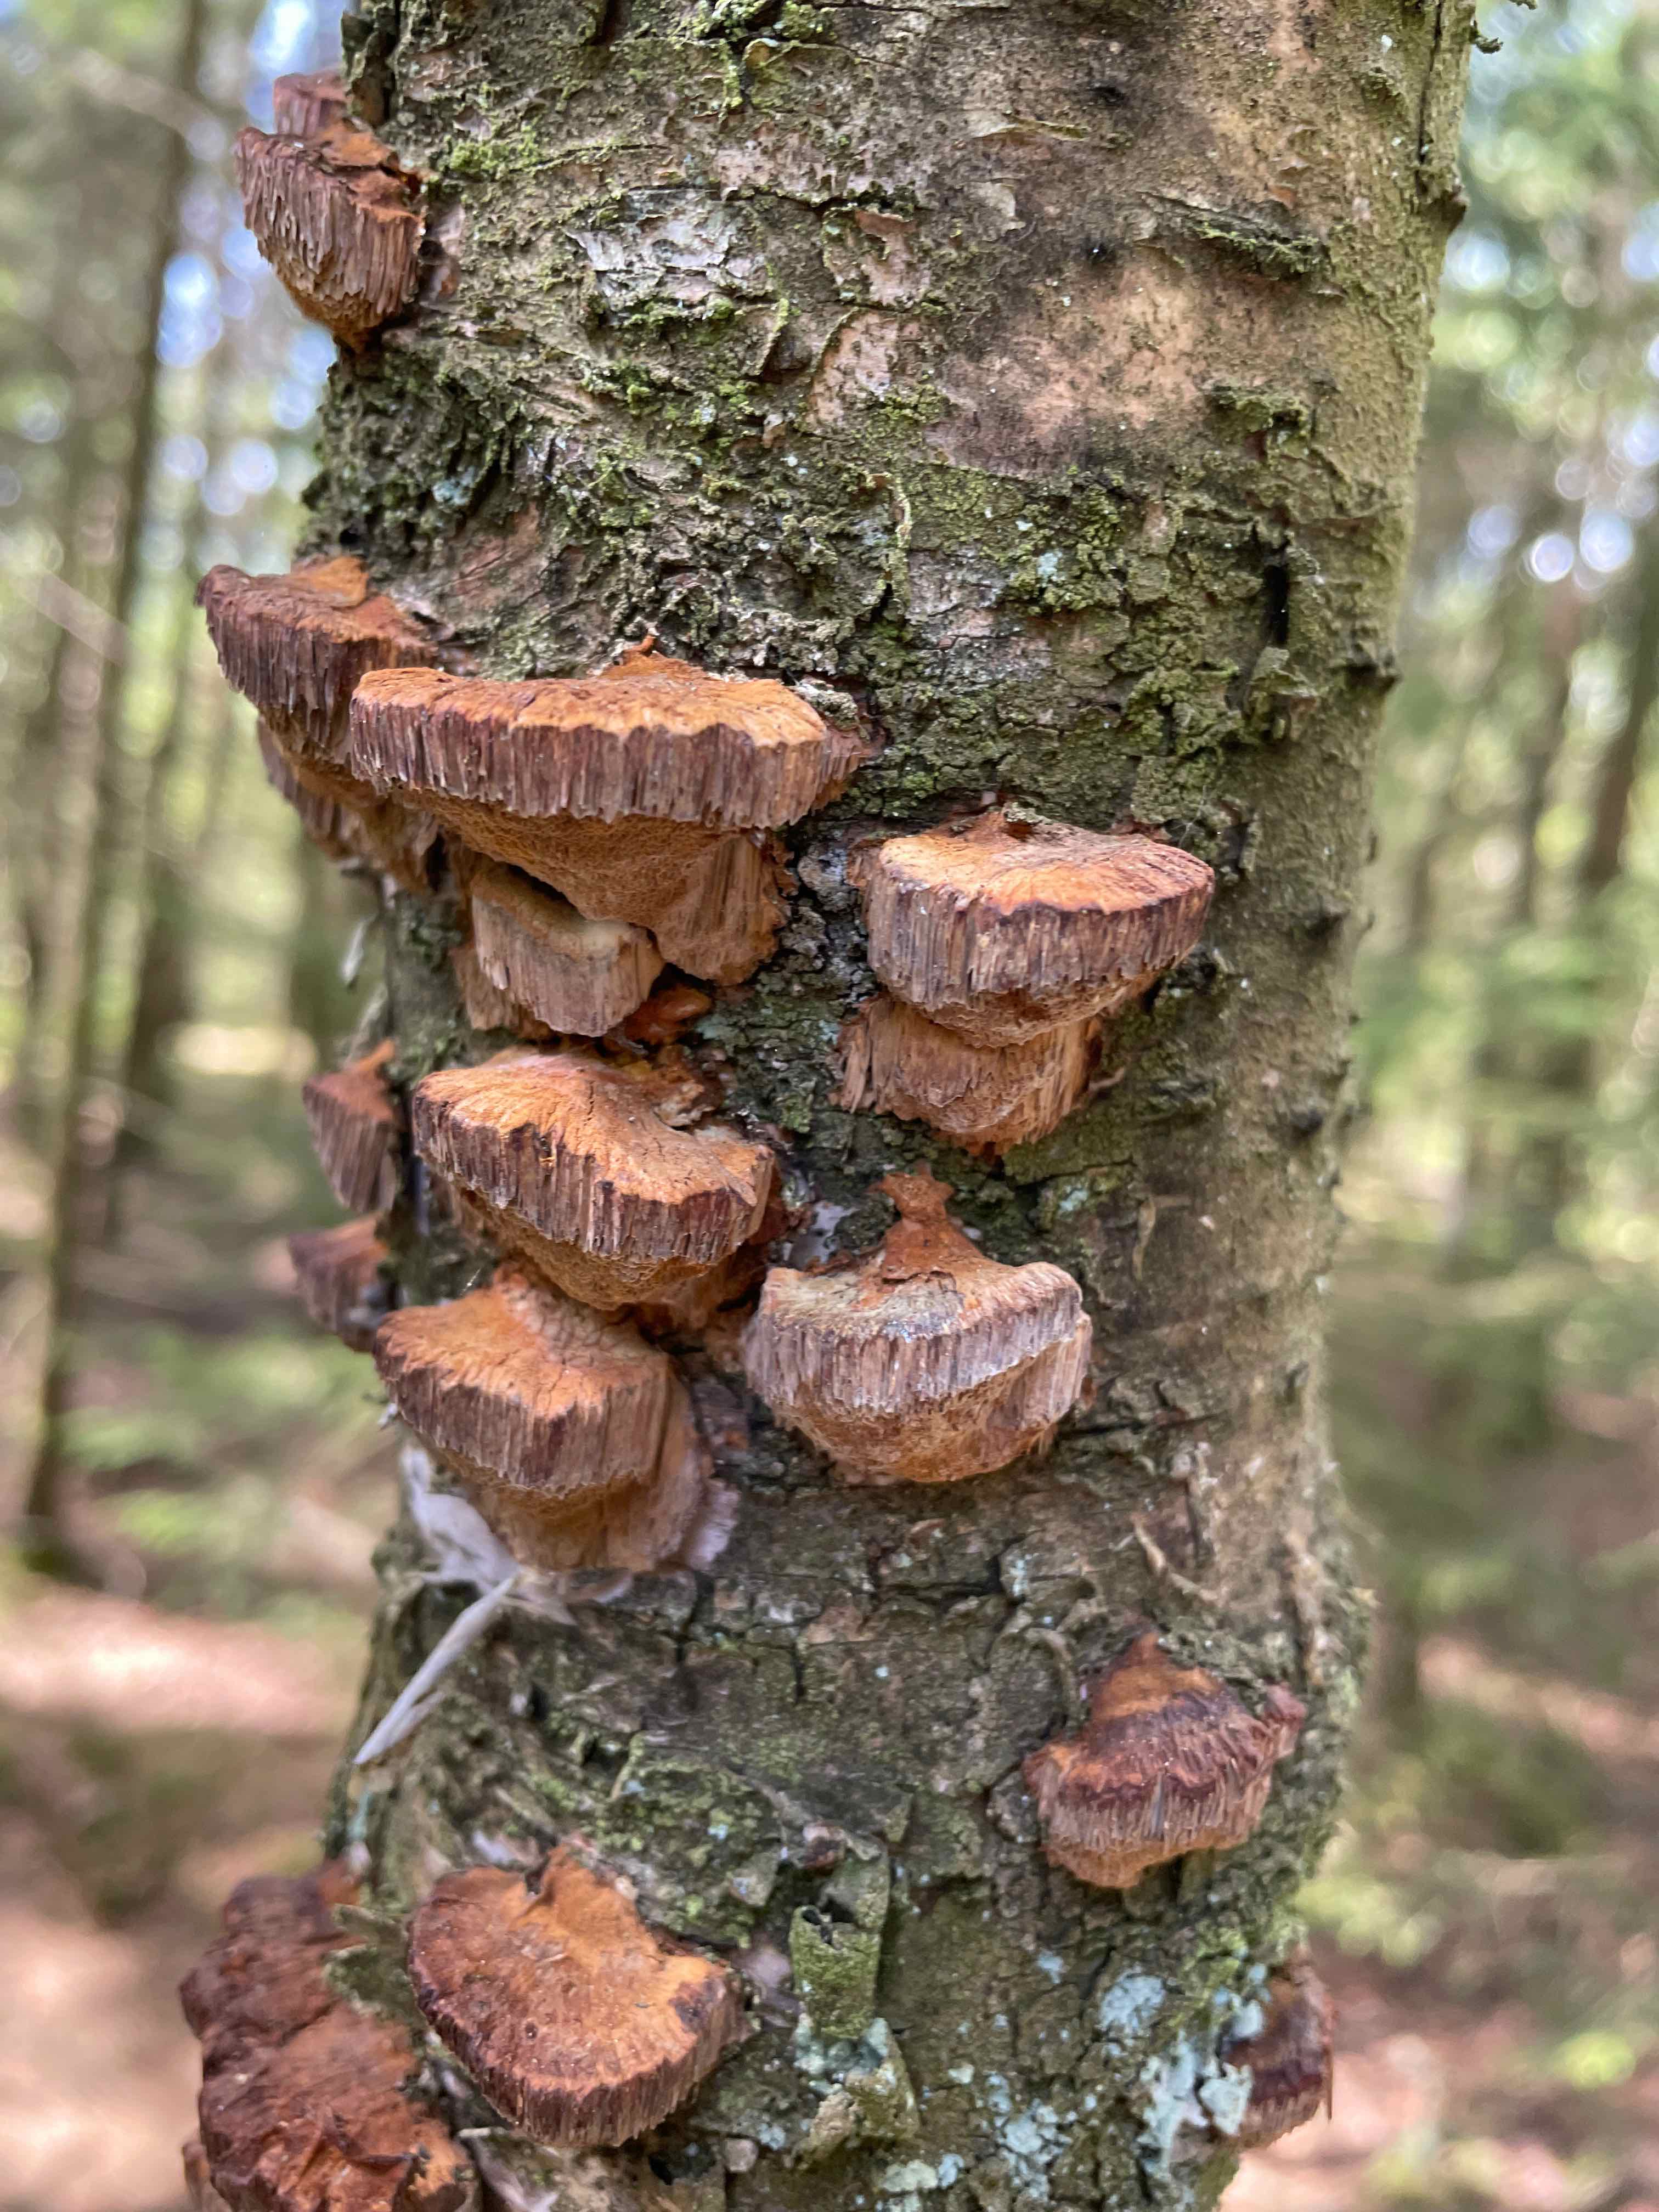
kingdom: Fungi
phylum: Basidiomycota
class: Agaricomycetes
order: Polyporales
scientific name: Polyporales
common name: poresvampordenen
